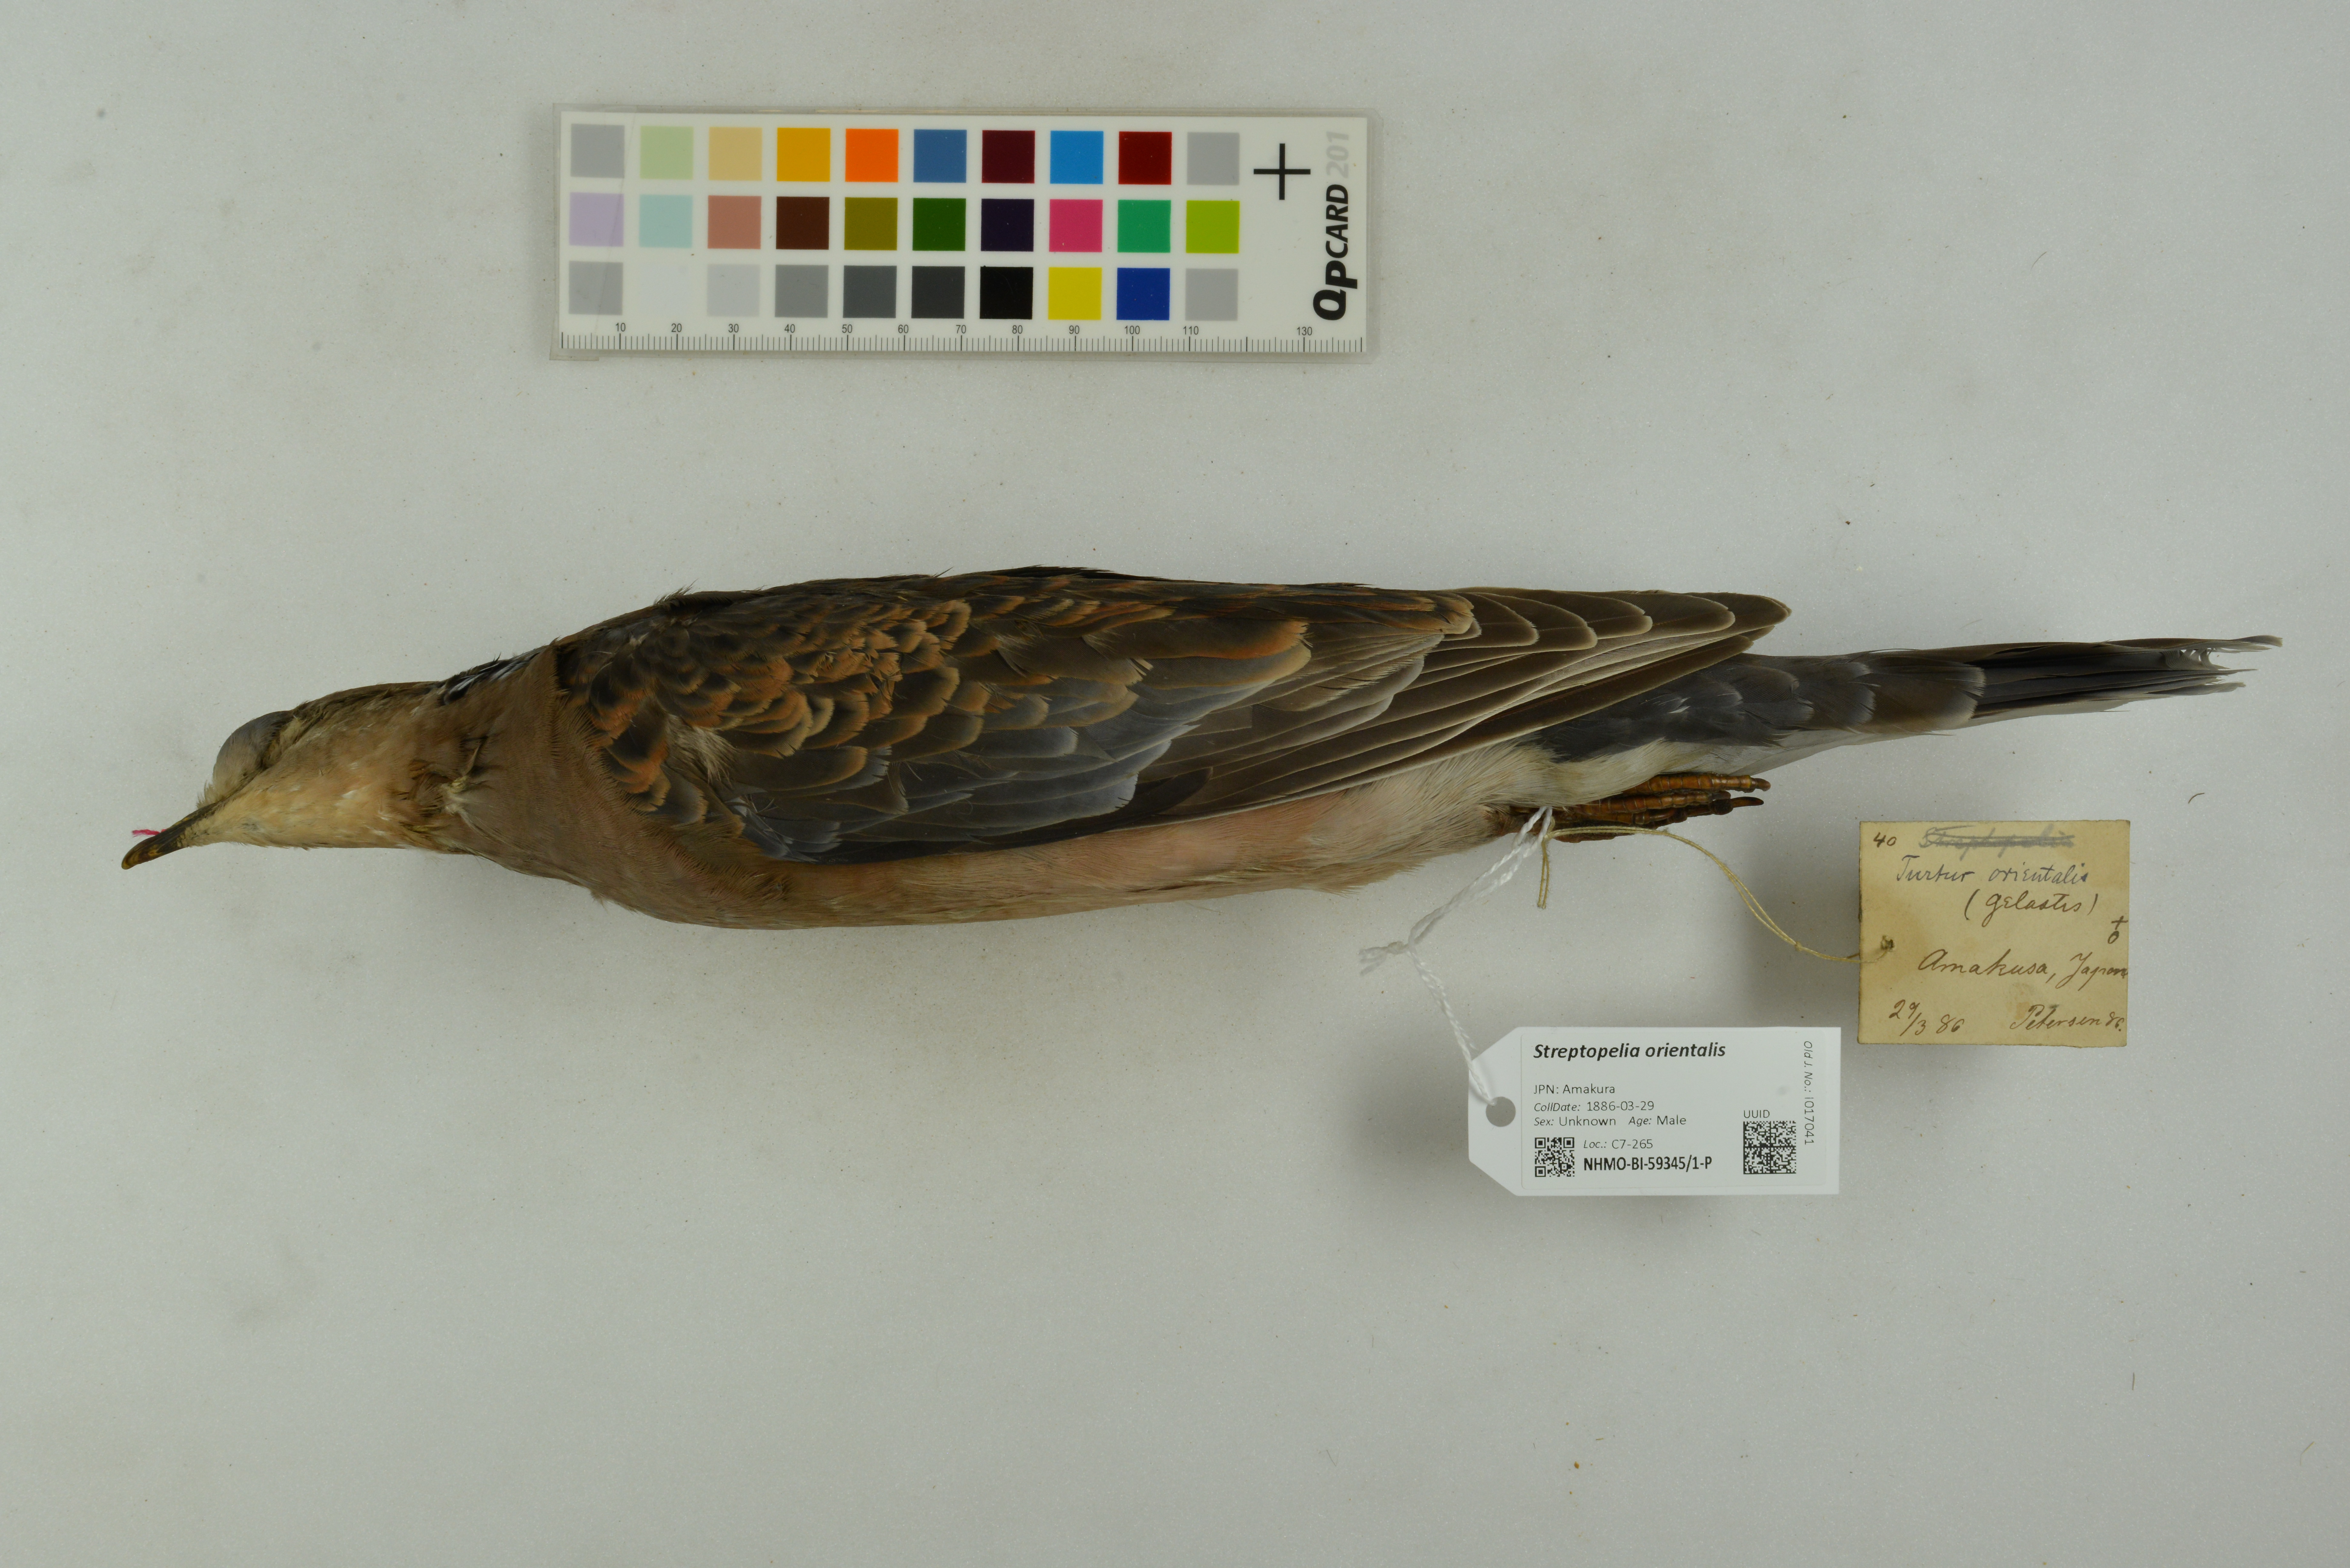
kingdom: Animalia
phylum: Chordata
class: Aves
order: Columbiformes
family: Columbidae
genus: Streptopelia
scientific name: Streptopelia orientalis
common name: Oriental turtle dove
